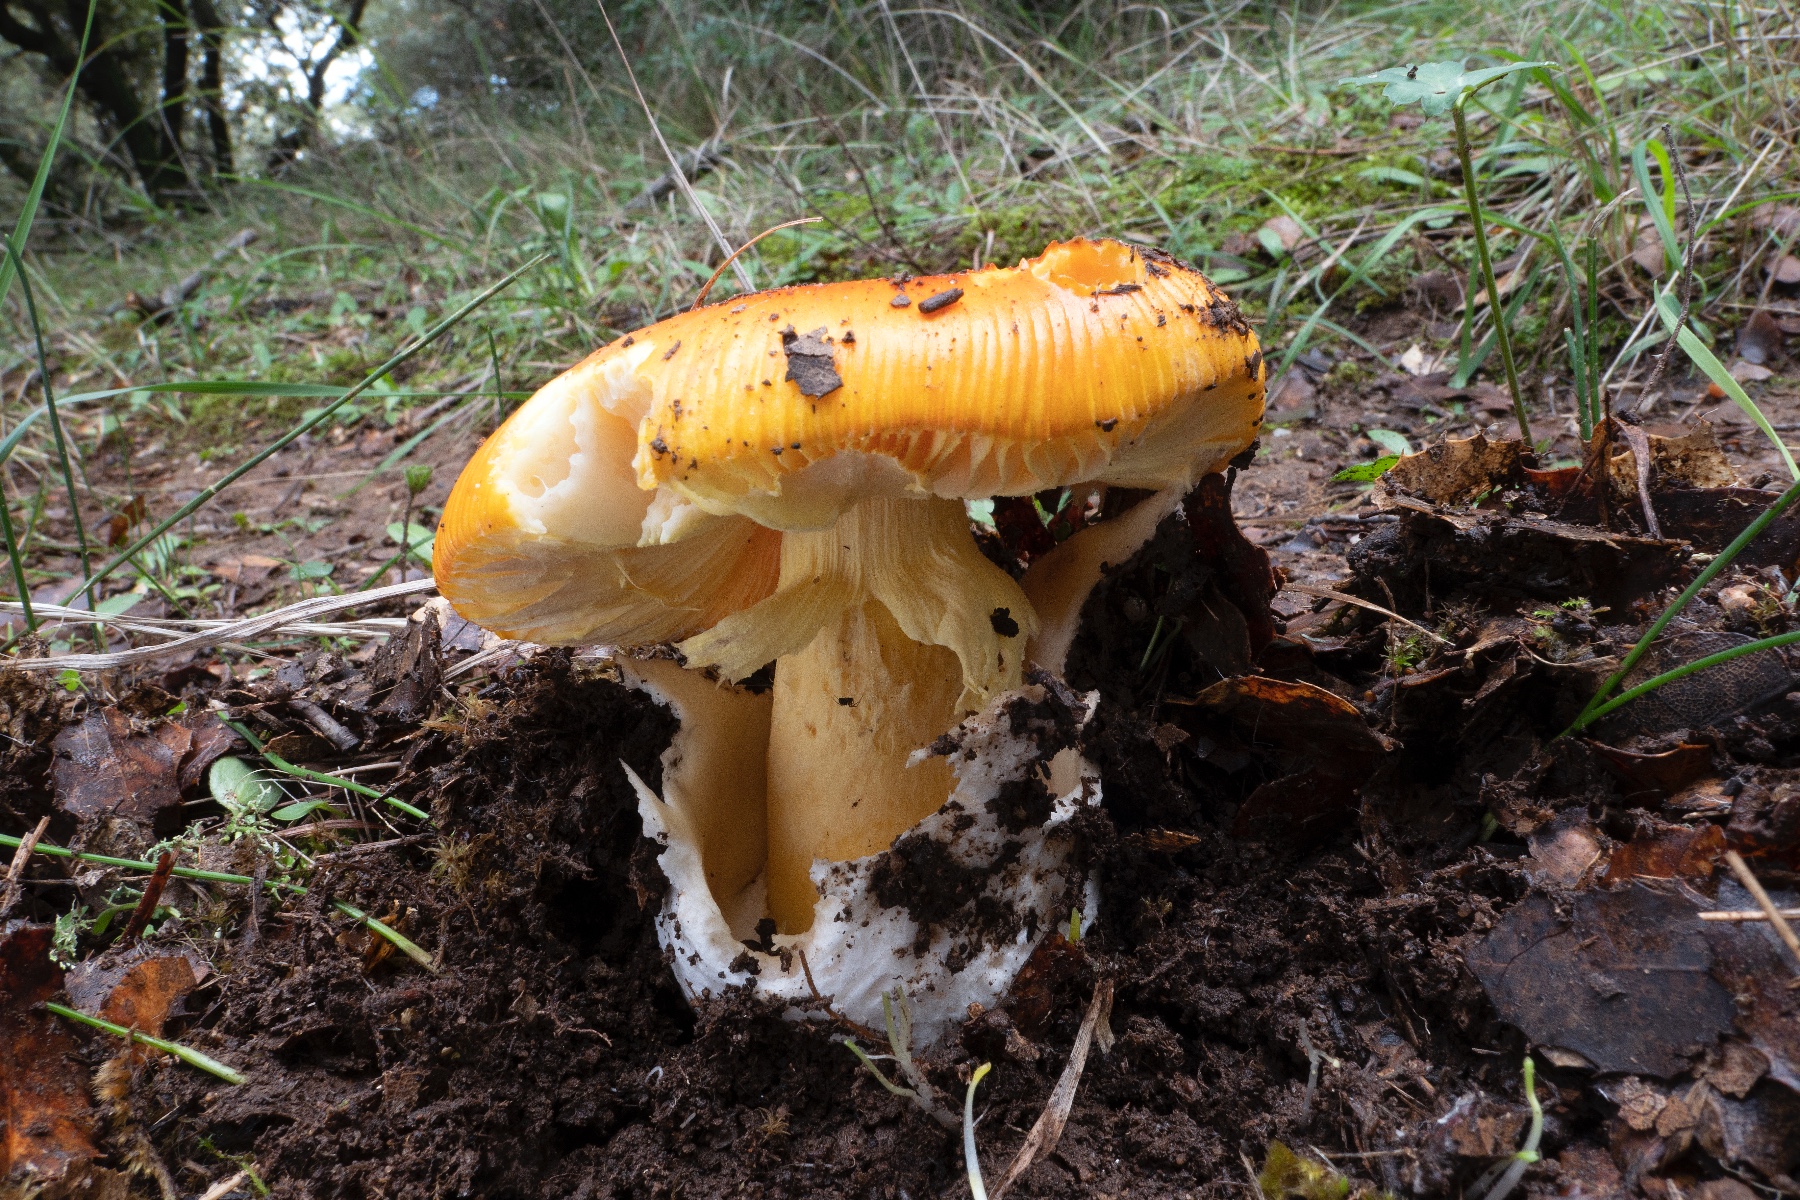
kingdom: Fungi
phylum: Basidiomycota
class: Agaricomycetes
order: Agaricales
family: Amanitaceae
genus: Amanita
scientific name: Amanita caesarea
